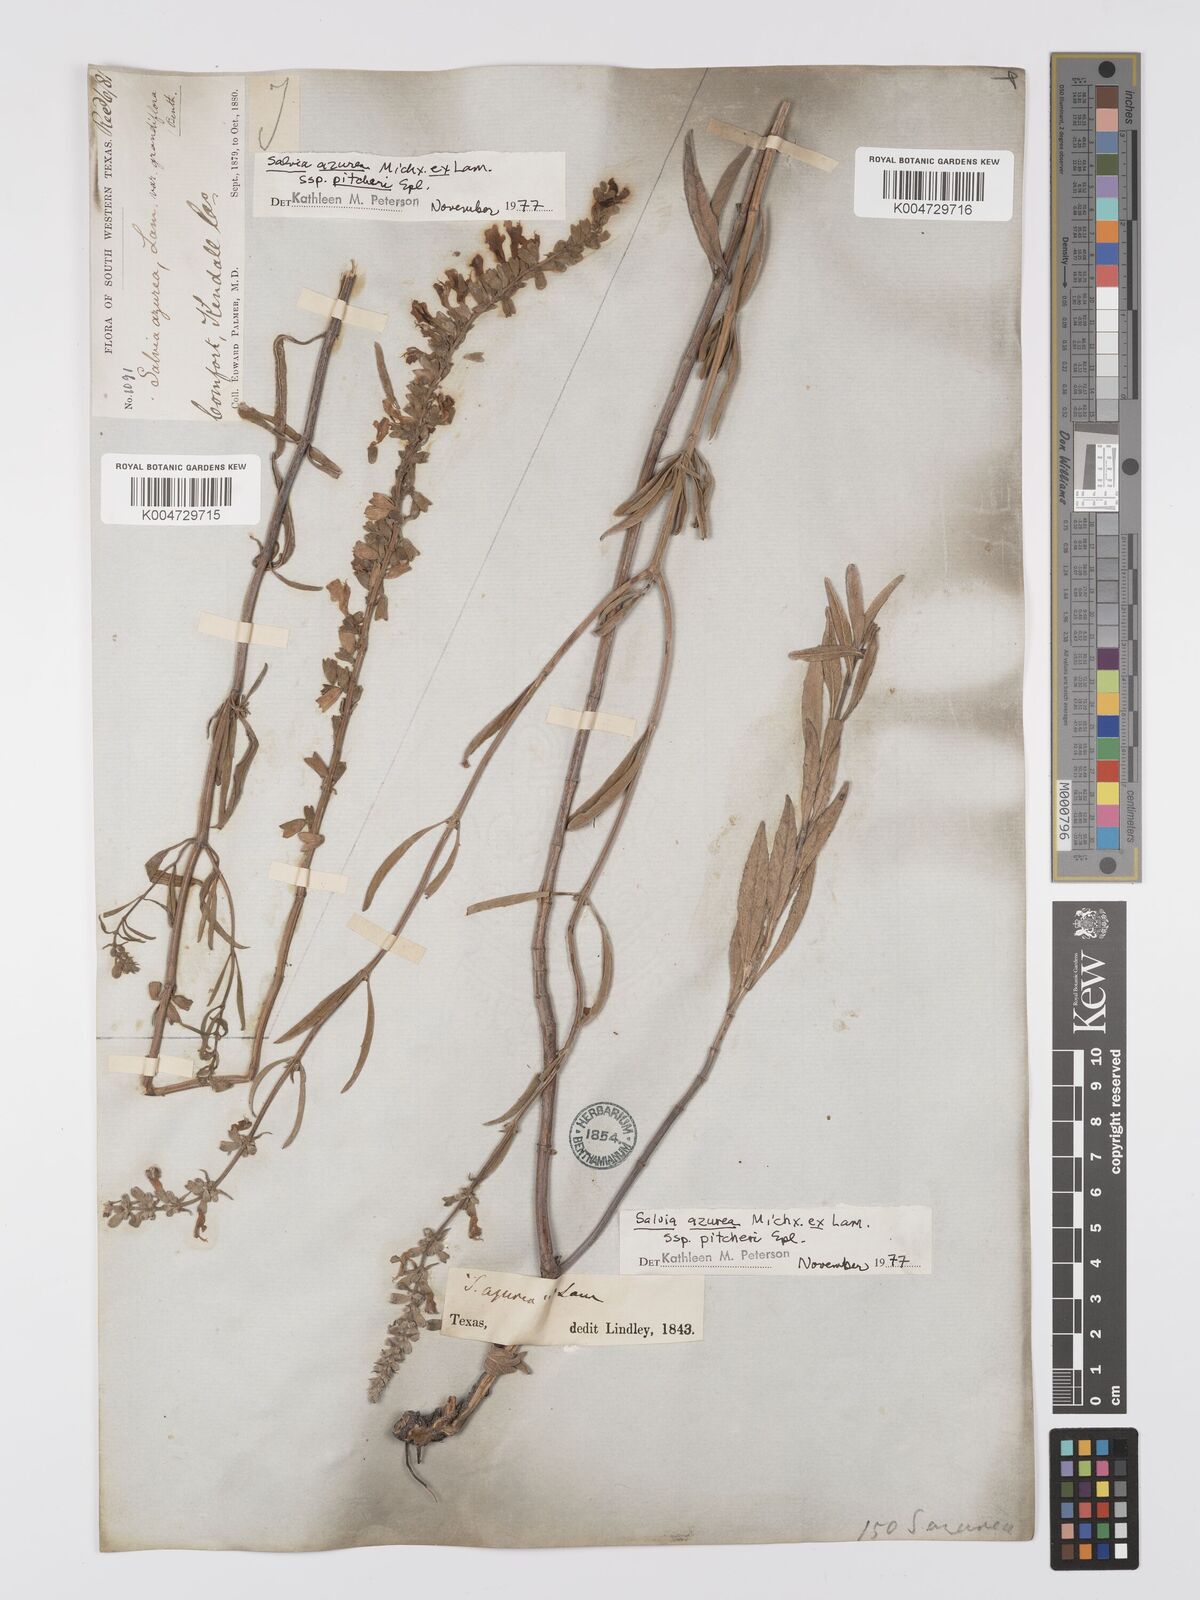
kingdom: Plantae
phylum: Tracheophyta
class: Magnoliopsida
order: Lamiales
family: Lamiaceae
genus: Salvia
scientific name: Salvia azurea
